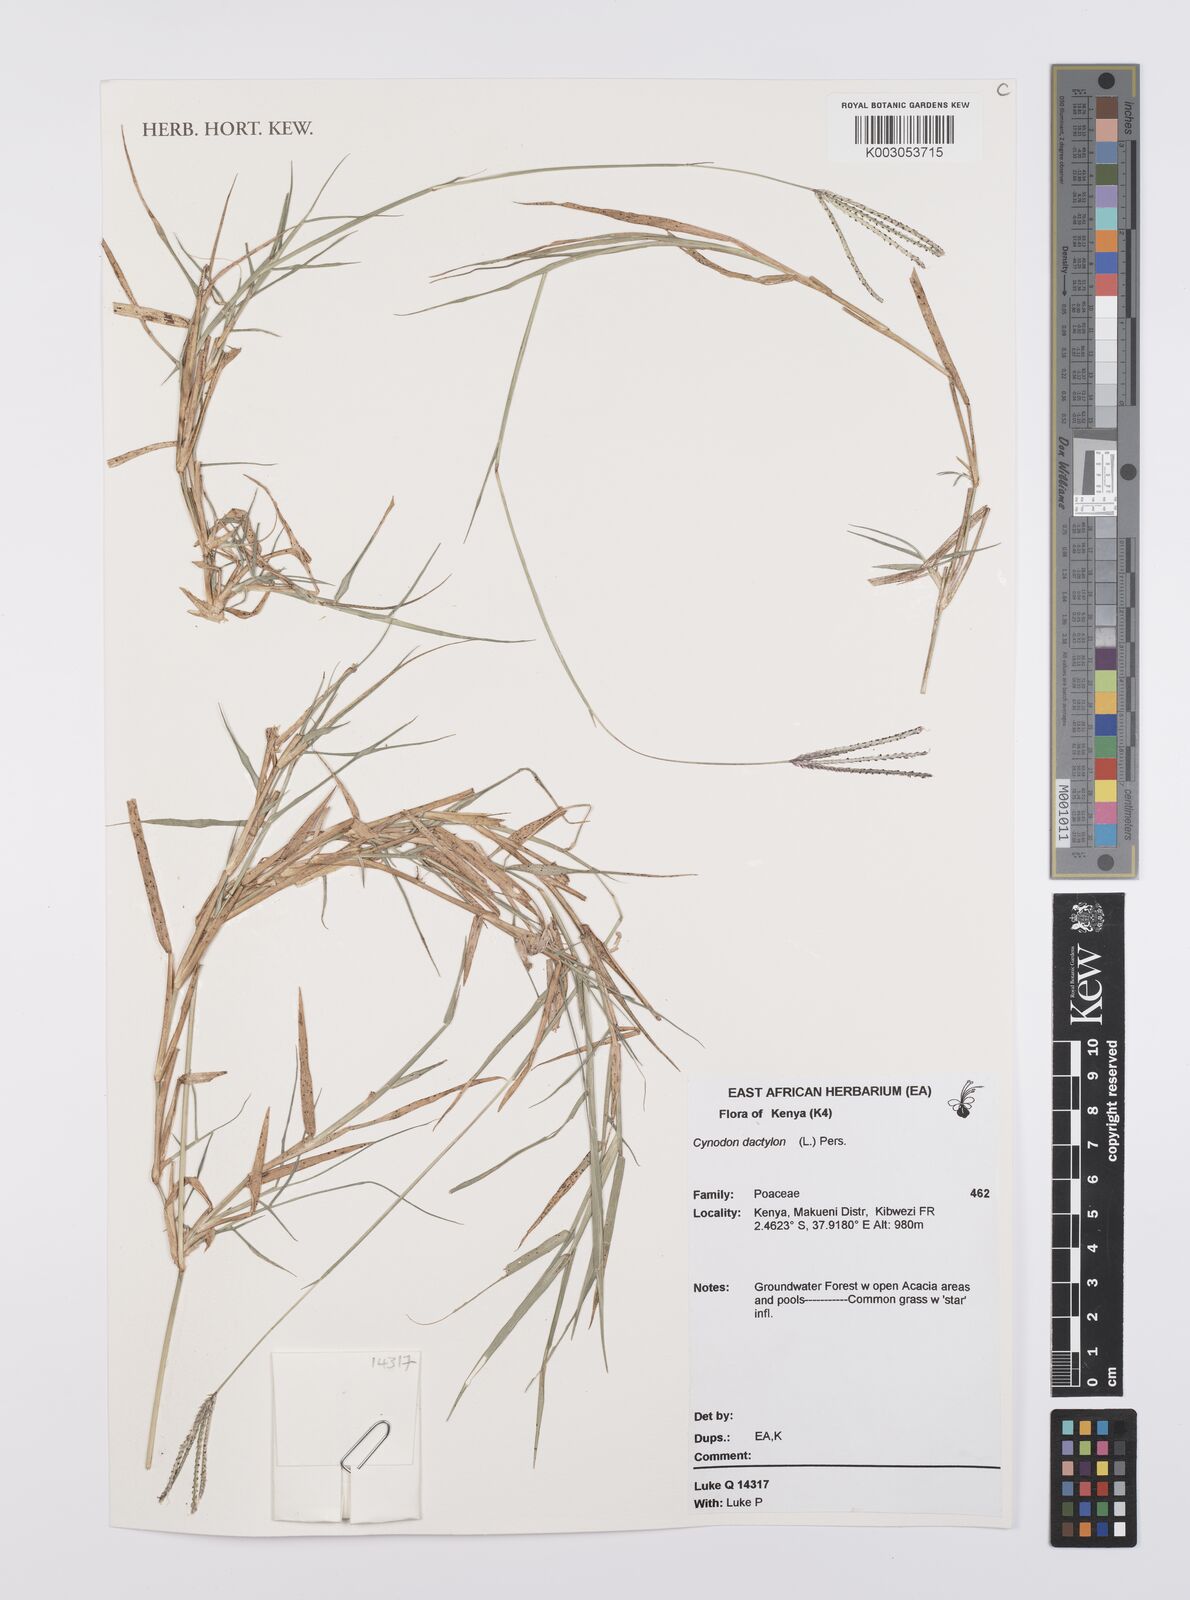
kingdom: Plantae
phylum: Tracheophyta
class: Liliopsida
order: Poales
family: Poaceae
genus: Cynodon
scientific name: Cynodon dactylon
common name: Bermuda grass
